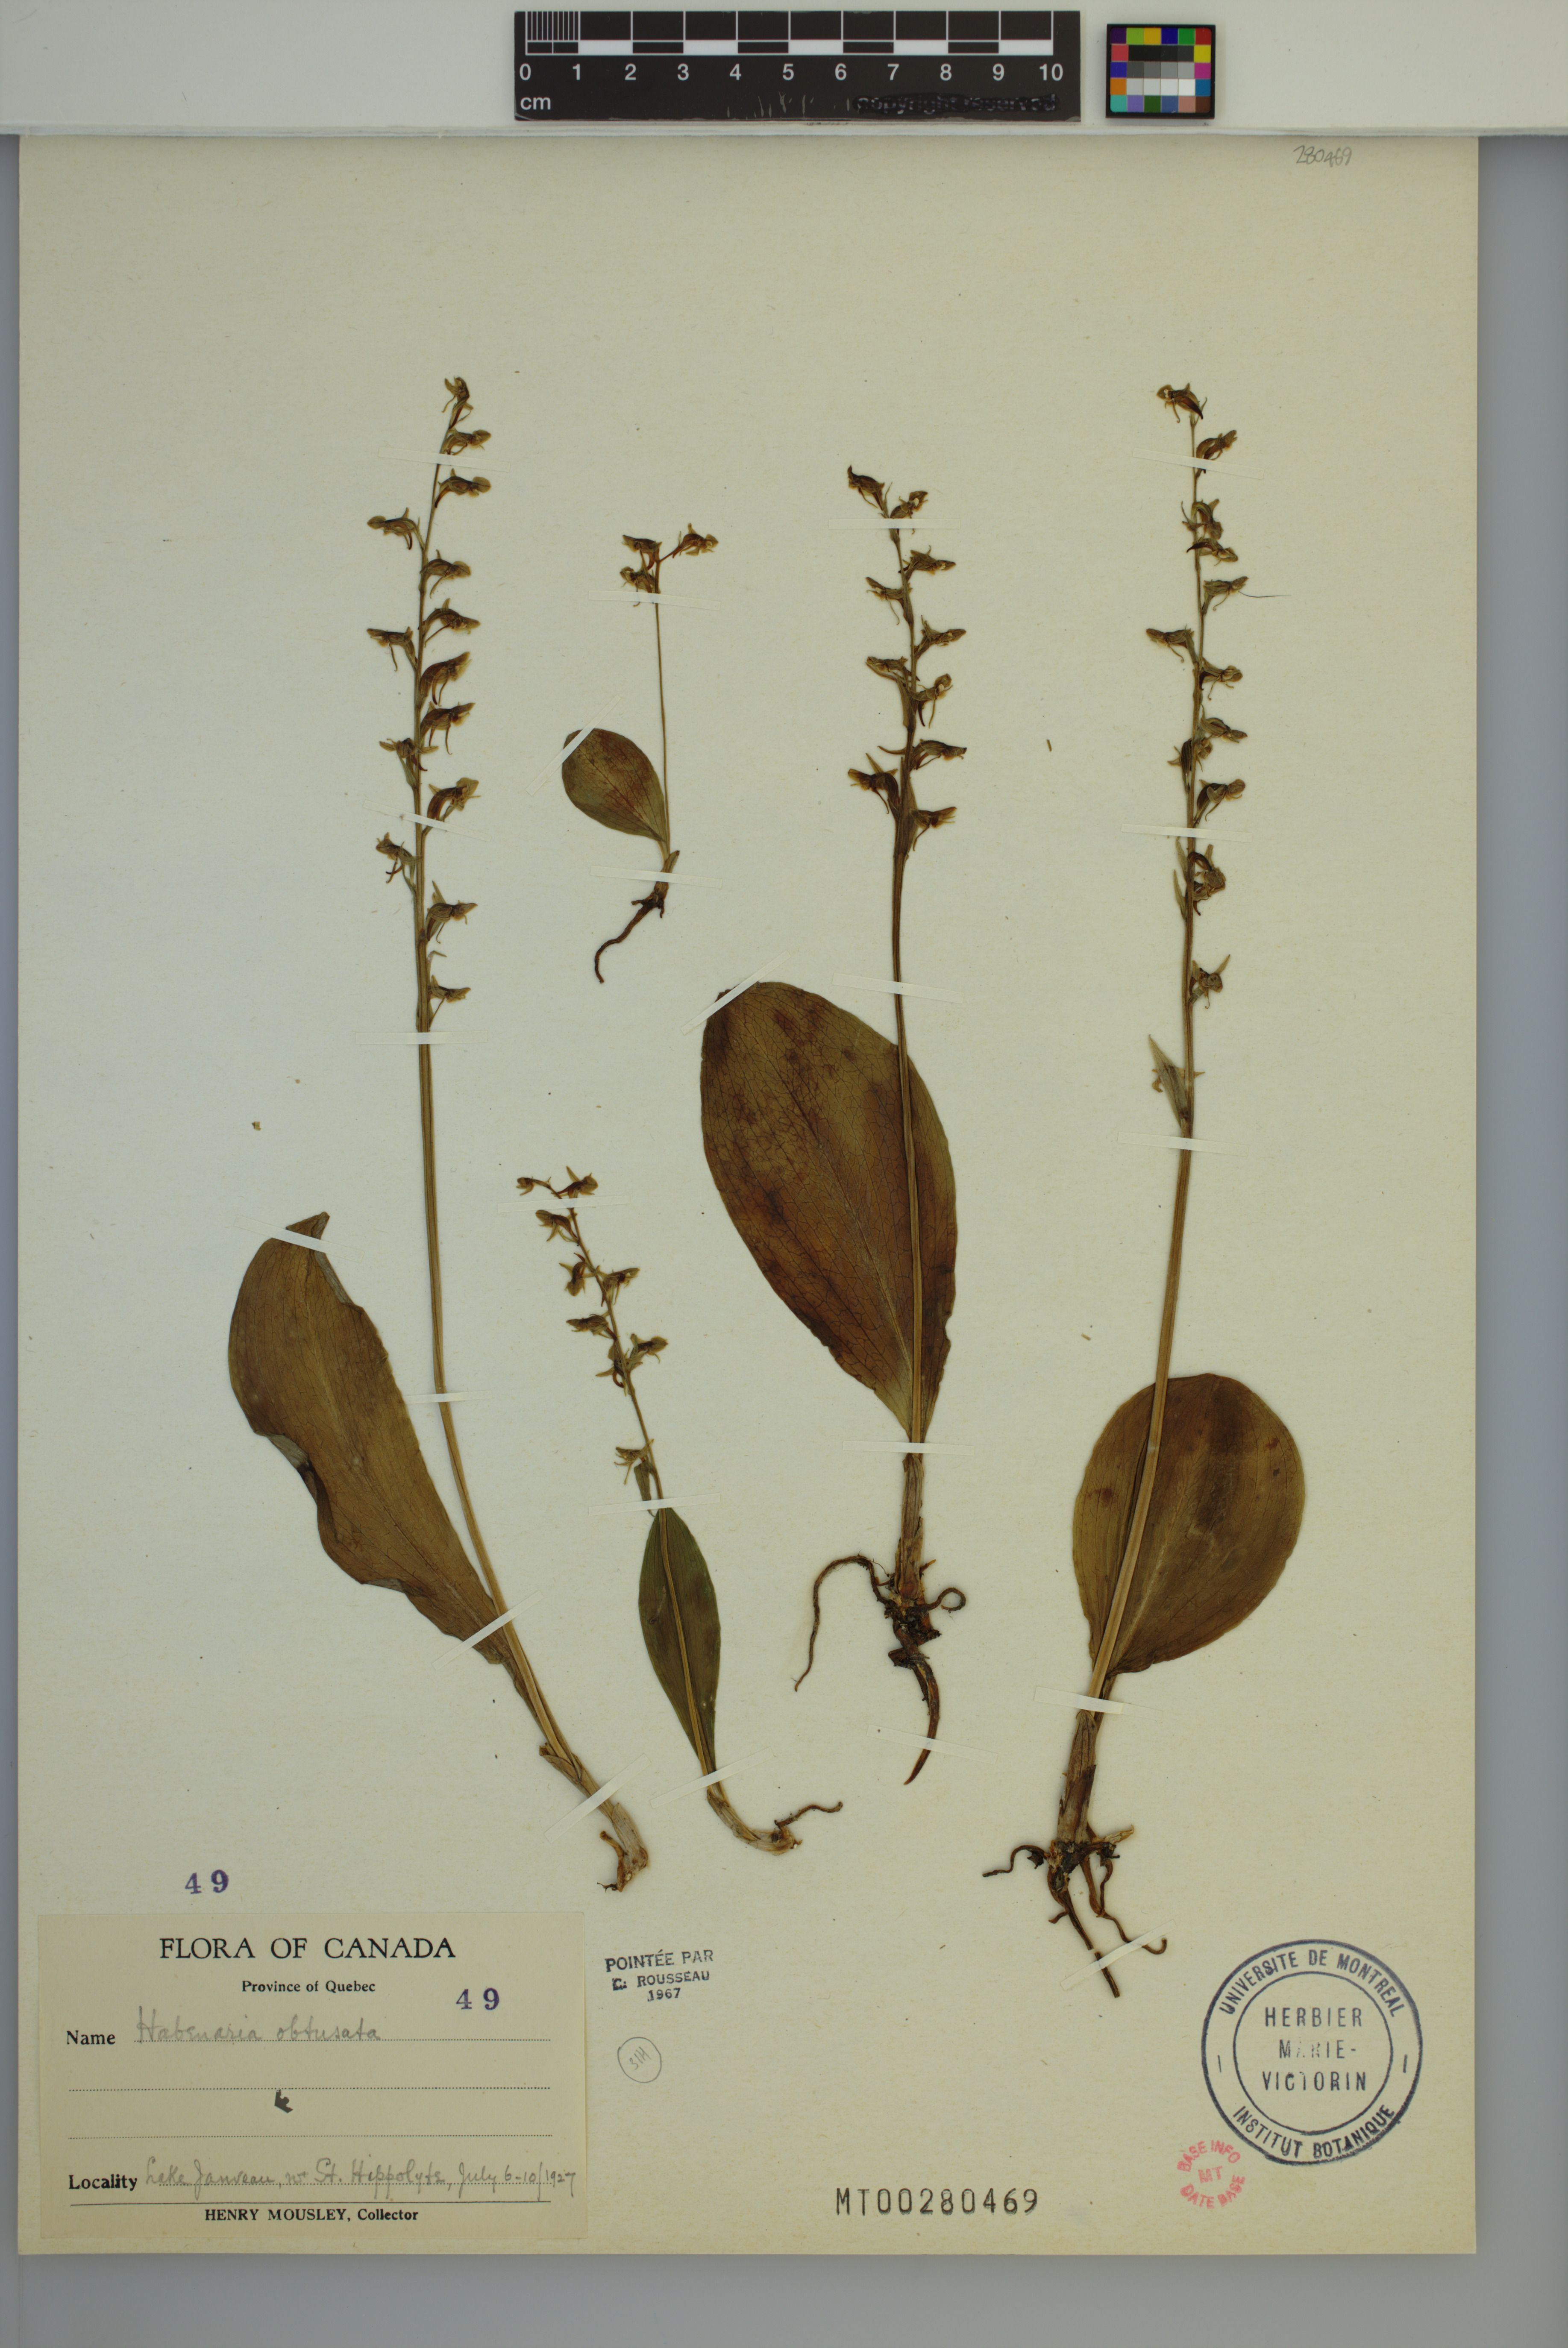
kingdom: Plantae
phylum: Tracheophyta
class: Liliopsida
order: Asparagales
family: Orchidaceae
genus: Platanthera
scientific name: Platanthera obtusata
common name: Blunt bog orchid
